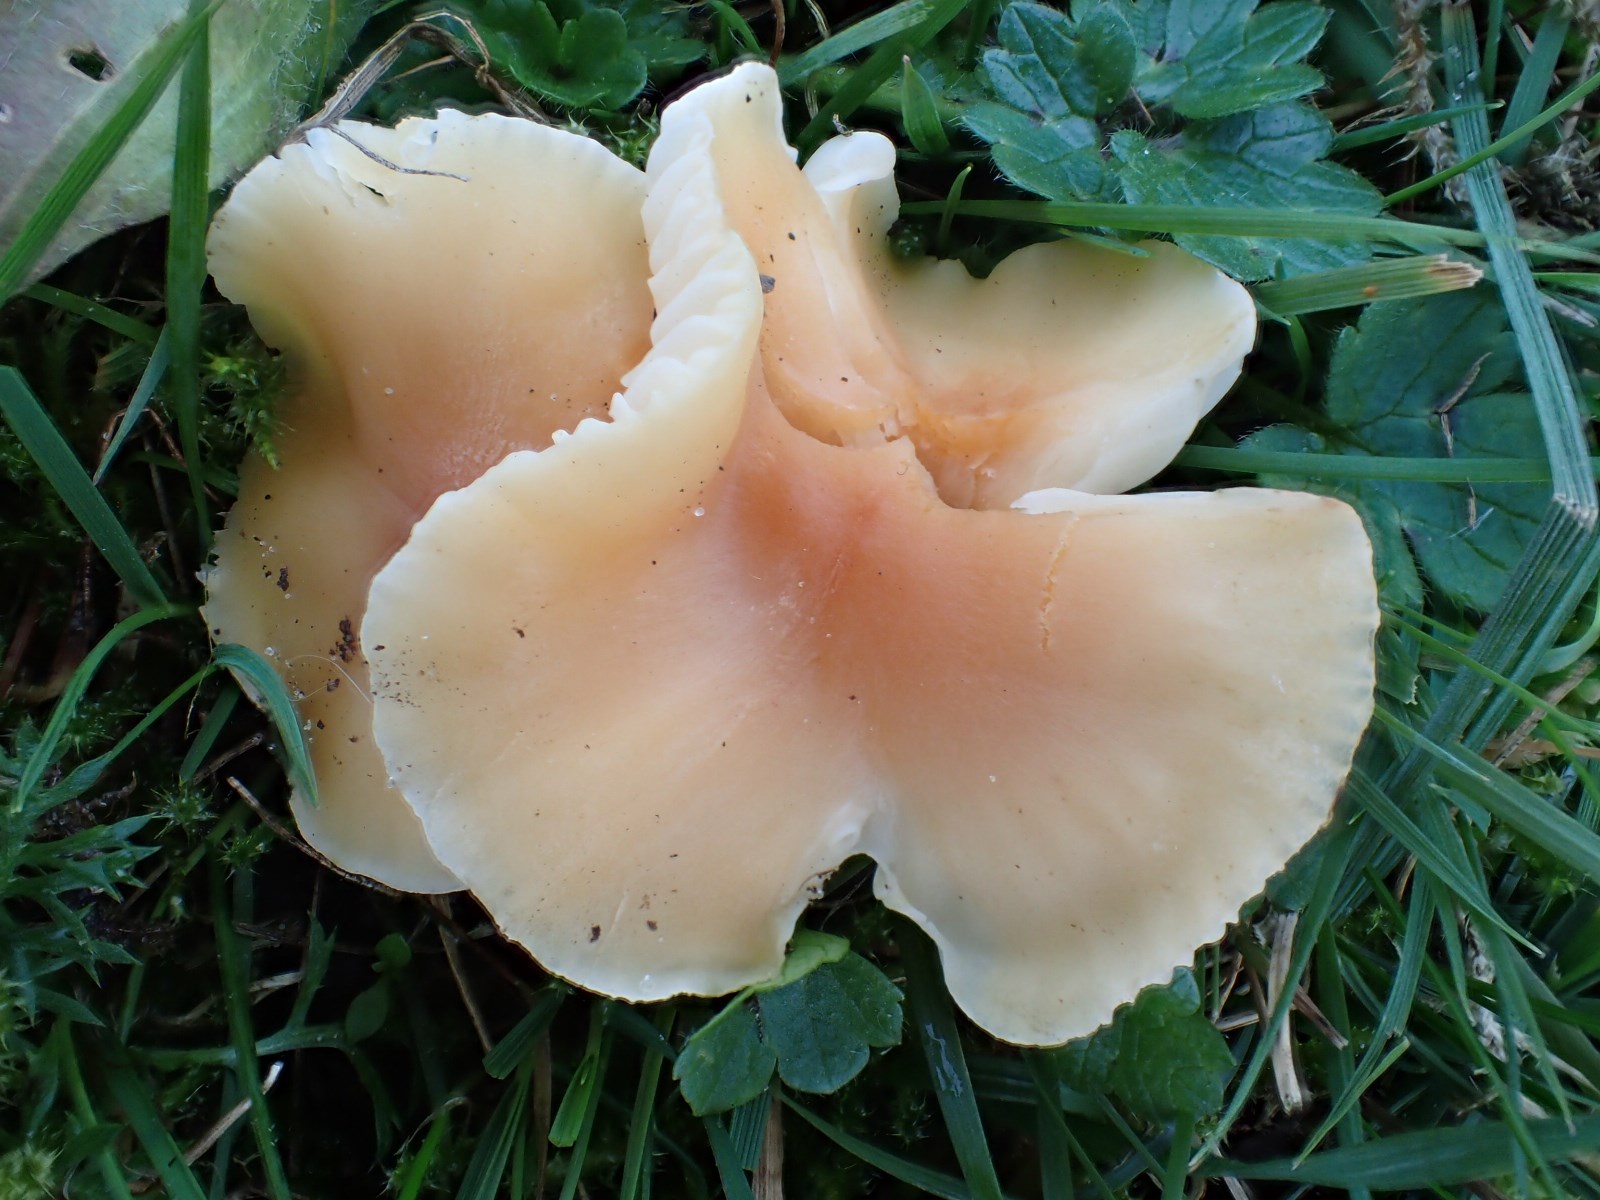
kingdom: Fungi
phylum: Basidiomycota
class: Agaricomycetes
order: Agaricales
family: Hygrophoraceae
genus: Cuphophyllus
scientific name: Cuphophyllus pratensis
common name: eng-vokshat
